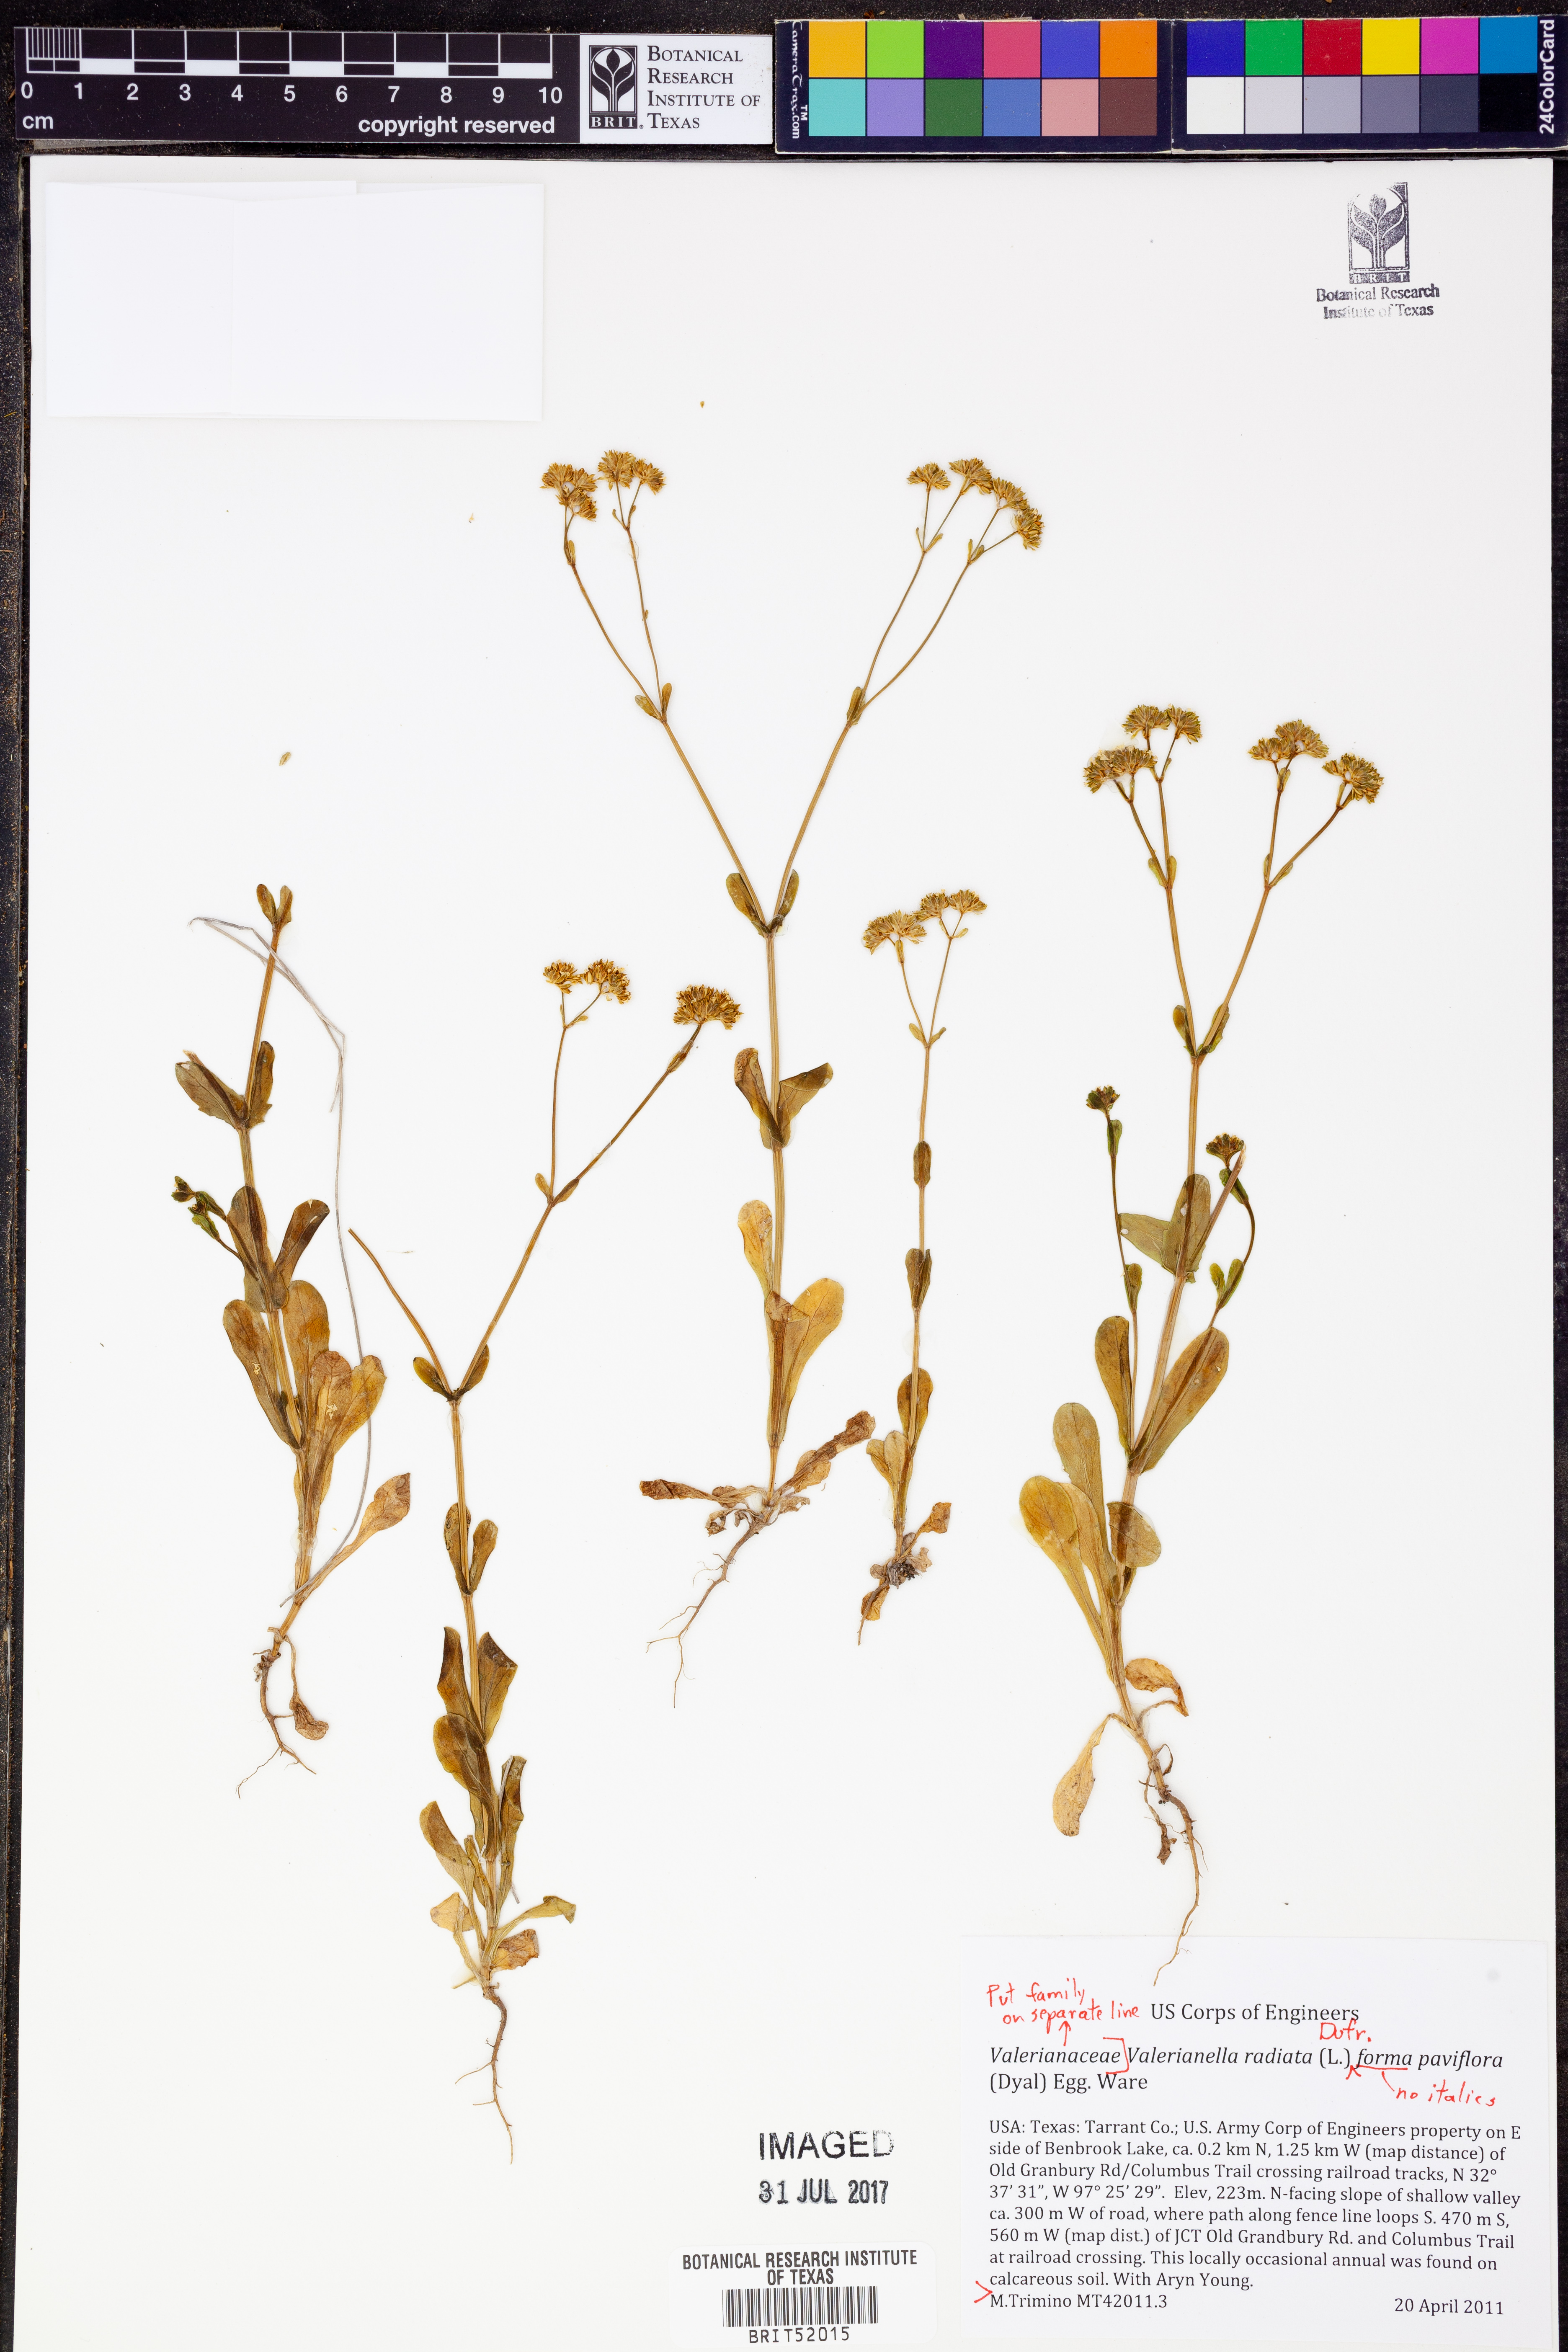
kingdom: Plantae
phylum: Tracheophyta
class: Magnoliopsida
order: Dipsacales
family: Caprifoliaceae
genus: Valerianella
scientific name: Valerianella radiata
